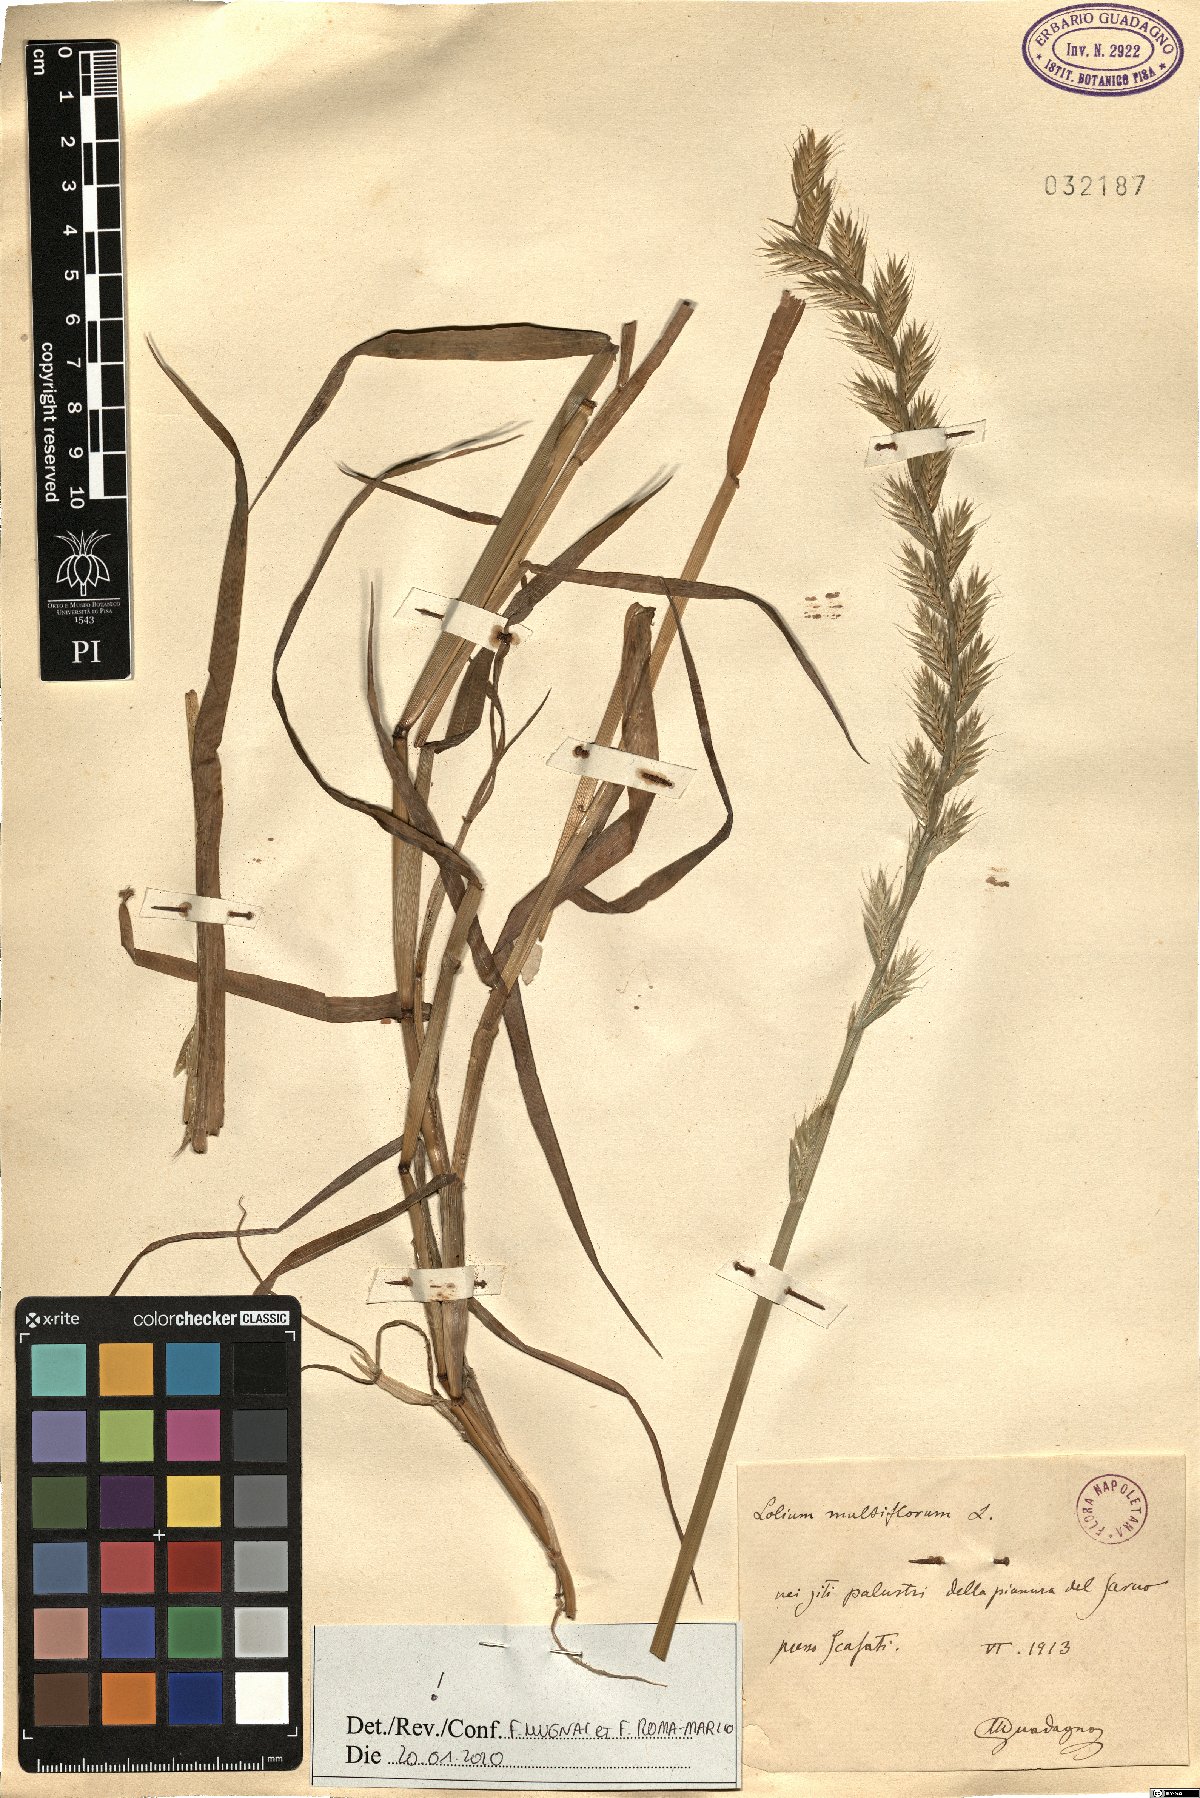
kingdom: Plantae
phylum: Tracheophyta
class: Liliopsida
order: Poales
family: Poaceae
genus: Lolium
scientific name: Lolium multiflorum
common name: Annual ryegrass
